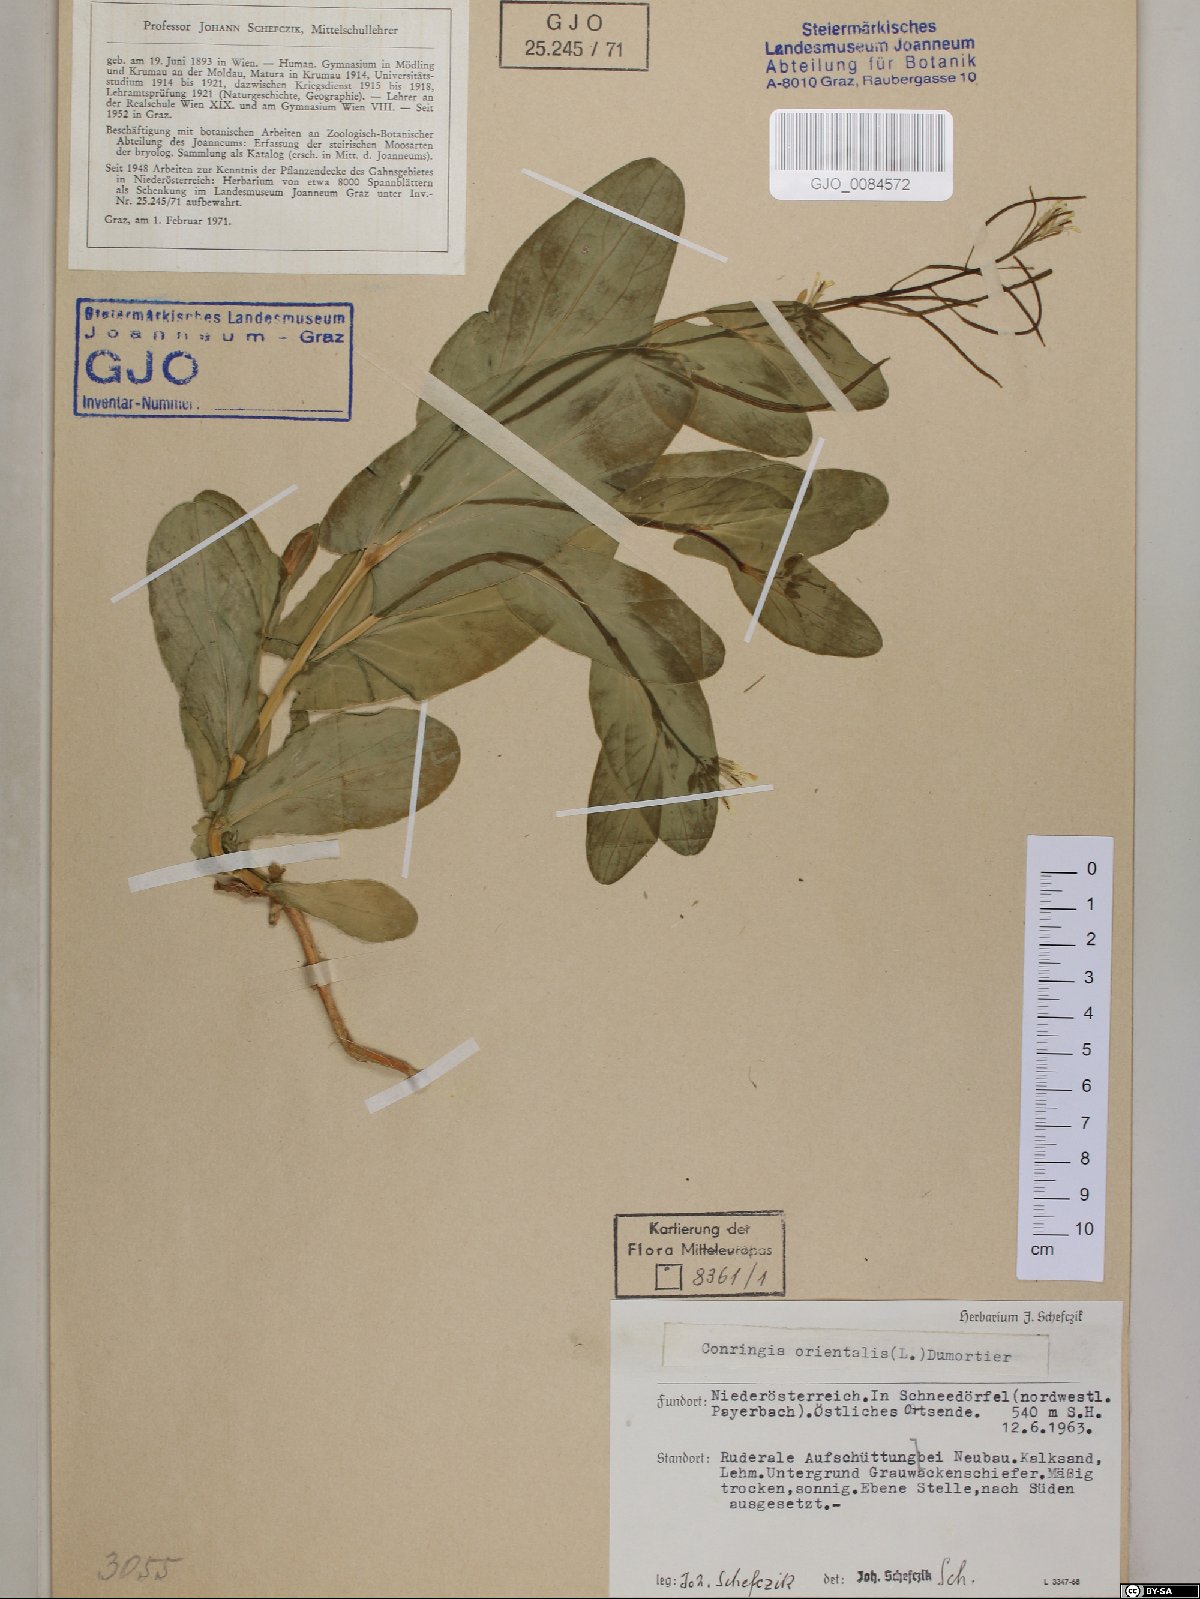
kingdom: Plantae
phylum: Tracheophyta
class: Magnoliopsida
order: Brassicales
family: Brassicaceae
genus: Conringia
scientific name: Conringia orientalis
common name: Hare's ear mustard
